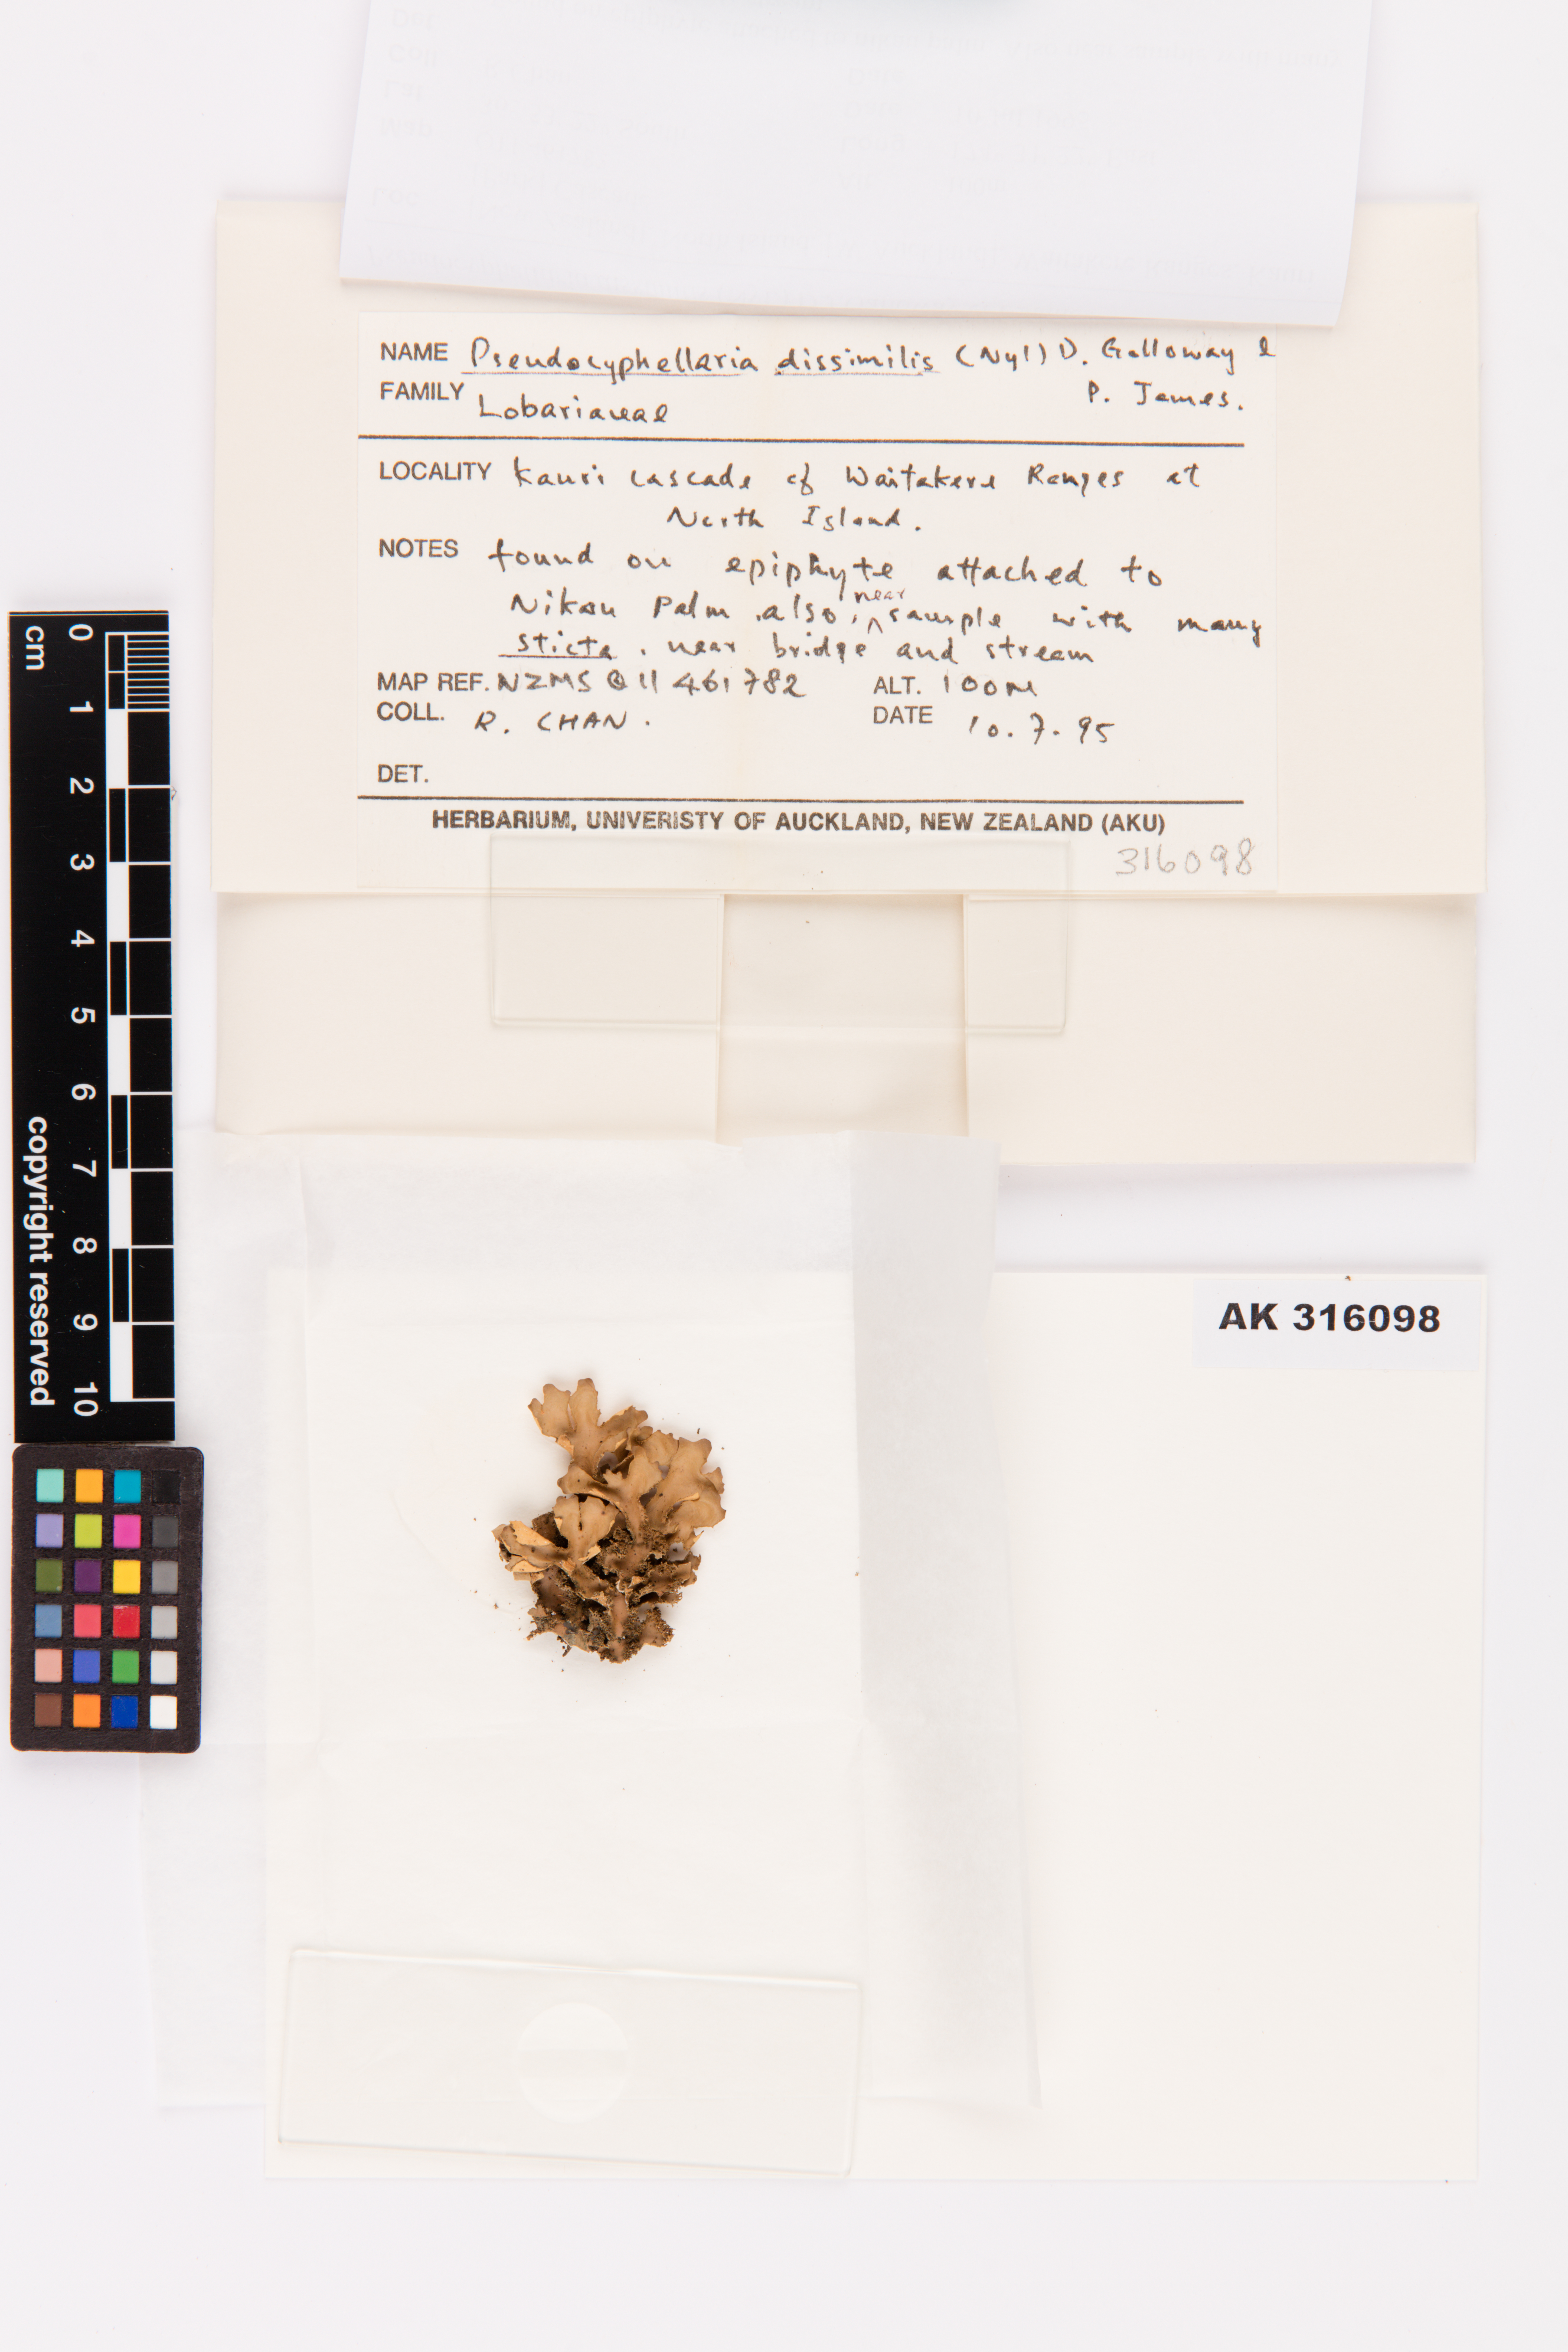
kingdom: Fungi
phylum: Ascomycota
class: Lecanoromycetes
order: Peltigerales
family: Lobariaceae
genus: Pseudocyphellaria
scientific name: Pseudocyphellaria dissimilis
